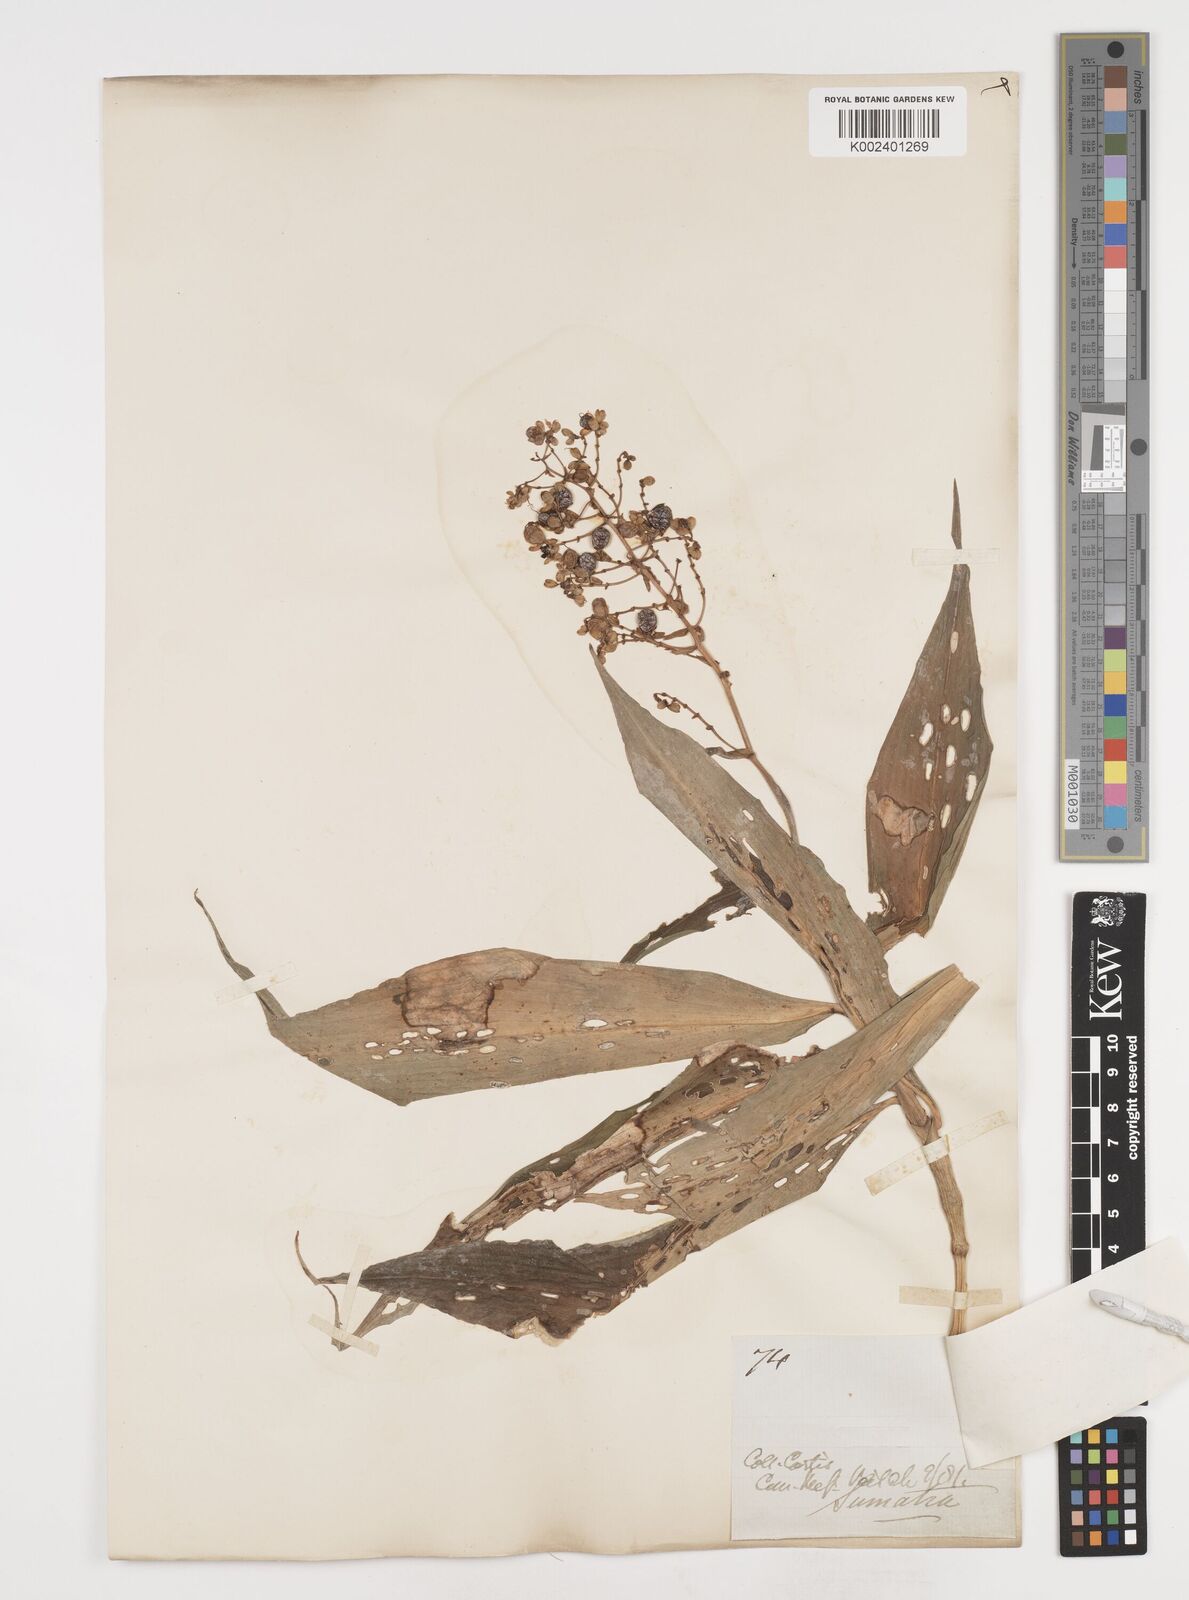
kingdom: Plantae
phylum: Tracheophyta
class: Liliopsida
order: Commelinales
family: Commelinaceae
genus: Pollia
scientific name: Pollia secundiflora
